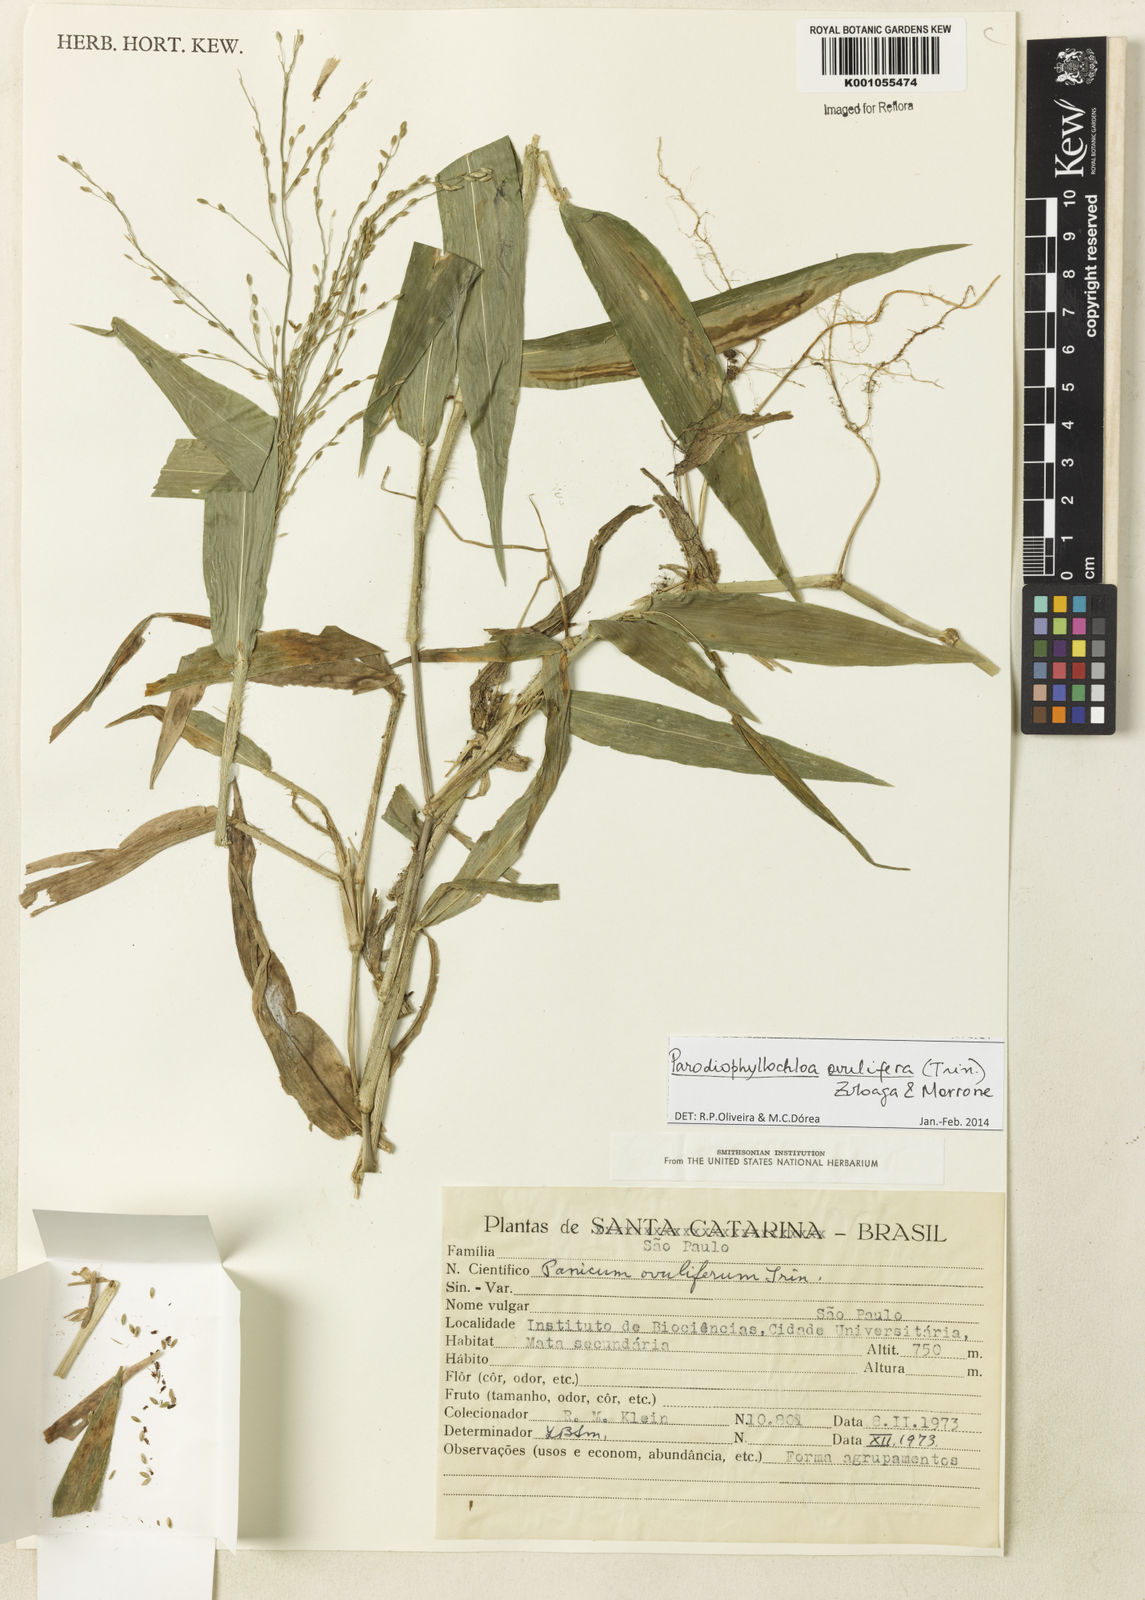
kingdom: Plantae
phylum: Tracheophyta
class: Liliopsida
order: Poales
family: Poaceae
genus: Parodiophyllochloa
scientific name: Parodiophyllochloa ovulifera
